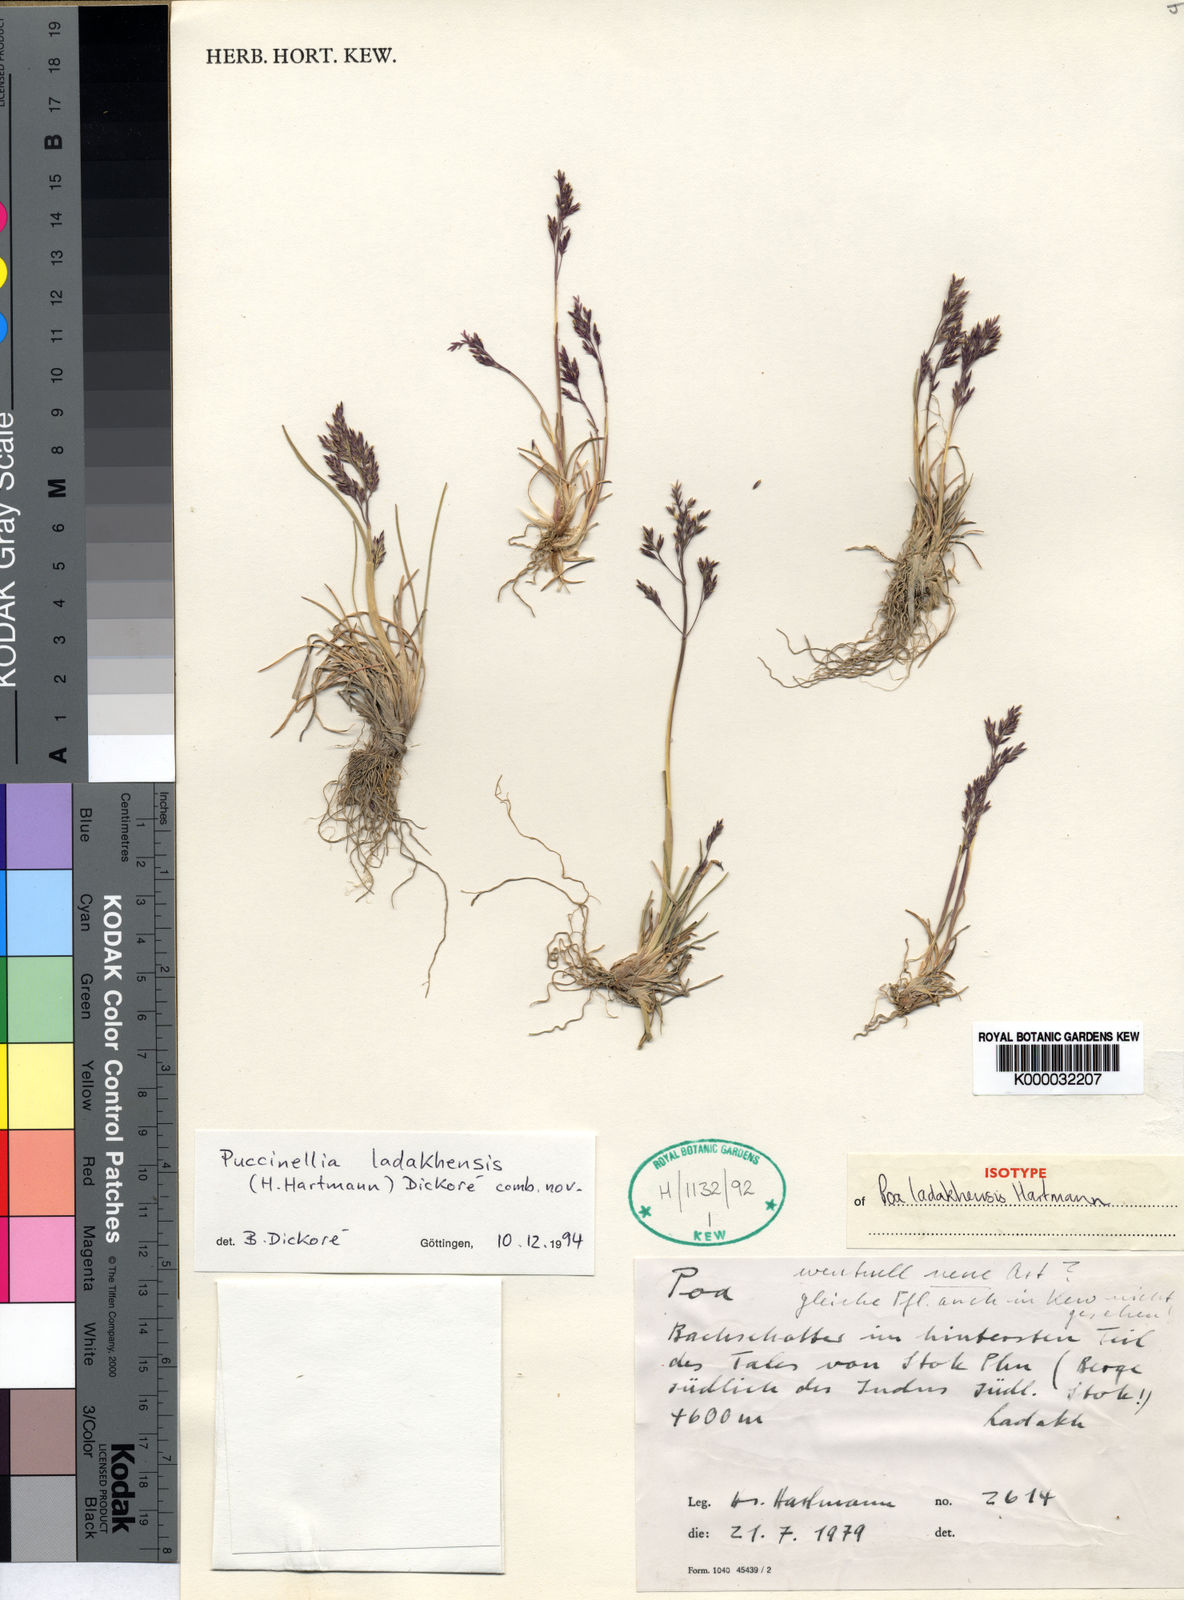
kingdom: Plantae
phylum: Tracheophyta
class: Liliopsida
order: Poales
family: Poaceae
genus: Puccinellia
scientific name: Puccinellia pauciramea
